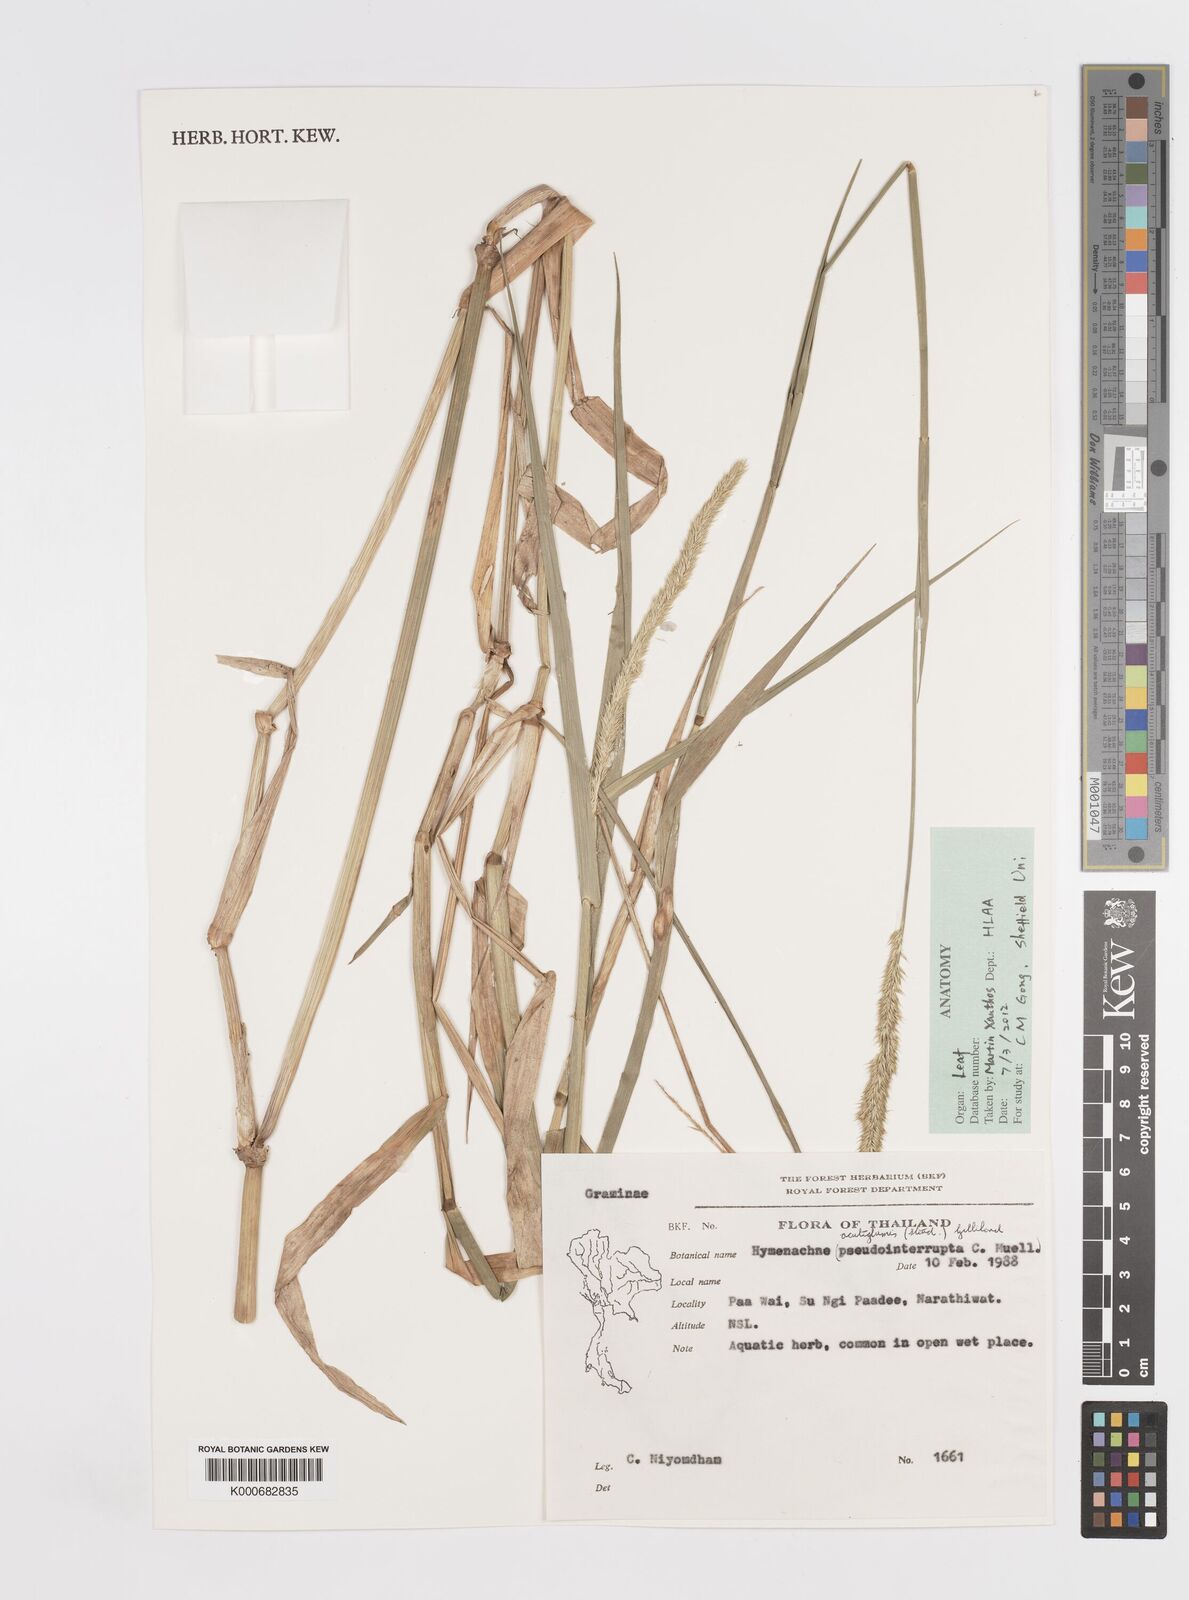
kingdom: Plantae
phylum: Tracheophyta
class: Liliopsida
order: Poales
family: Poaceae
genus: Hymenachne
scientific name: Hymenachne amplexicaulis
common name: Olive hymenachne
